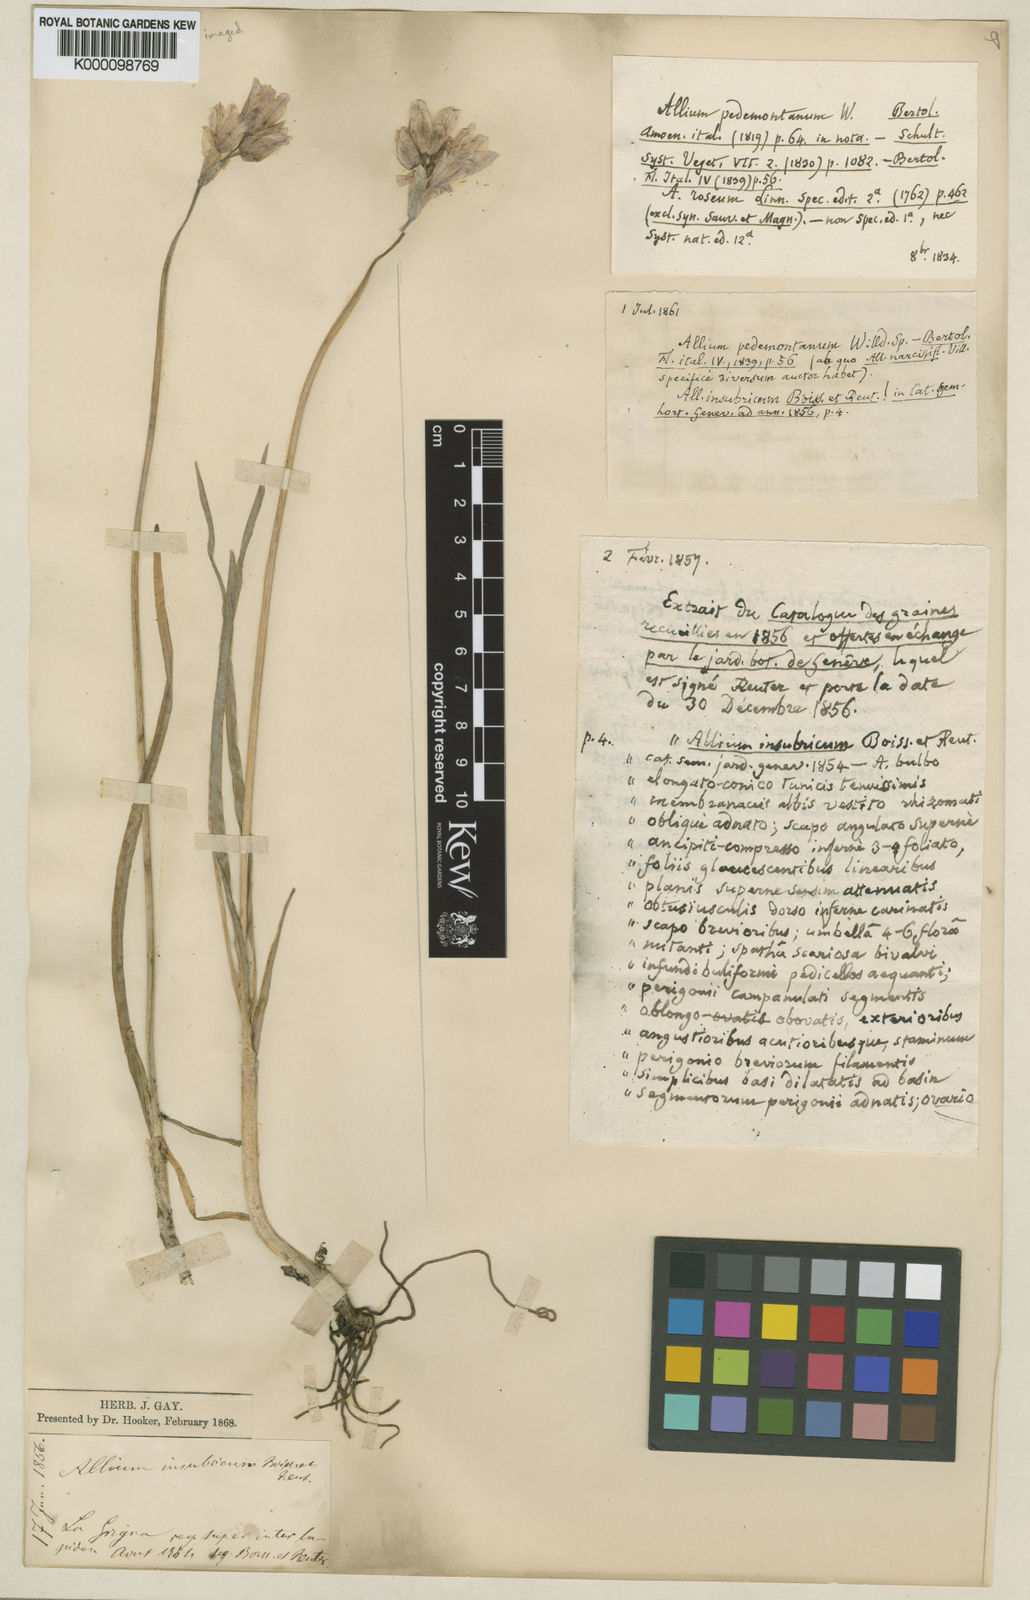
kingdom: Plantae
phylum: Tracheophyta
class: Liliopsida
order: Asparagales
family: Amaryllidaceae
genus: Allium
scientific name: Allium insubricum
